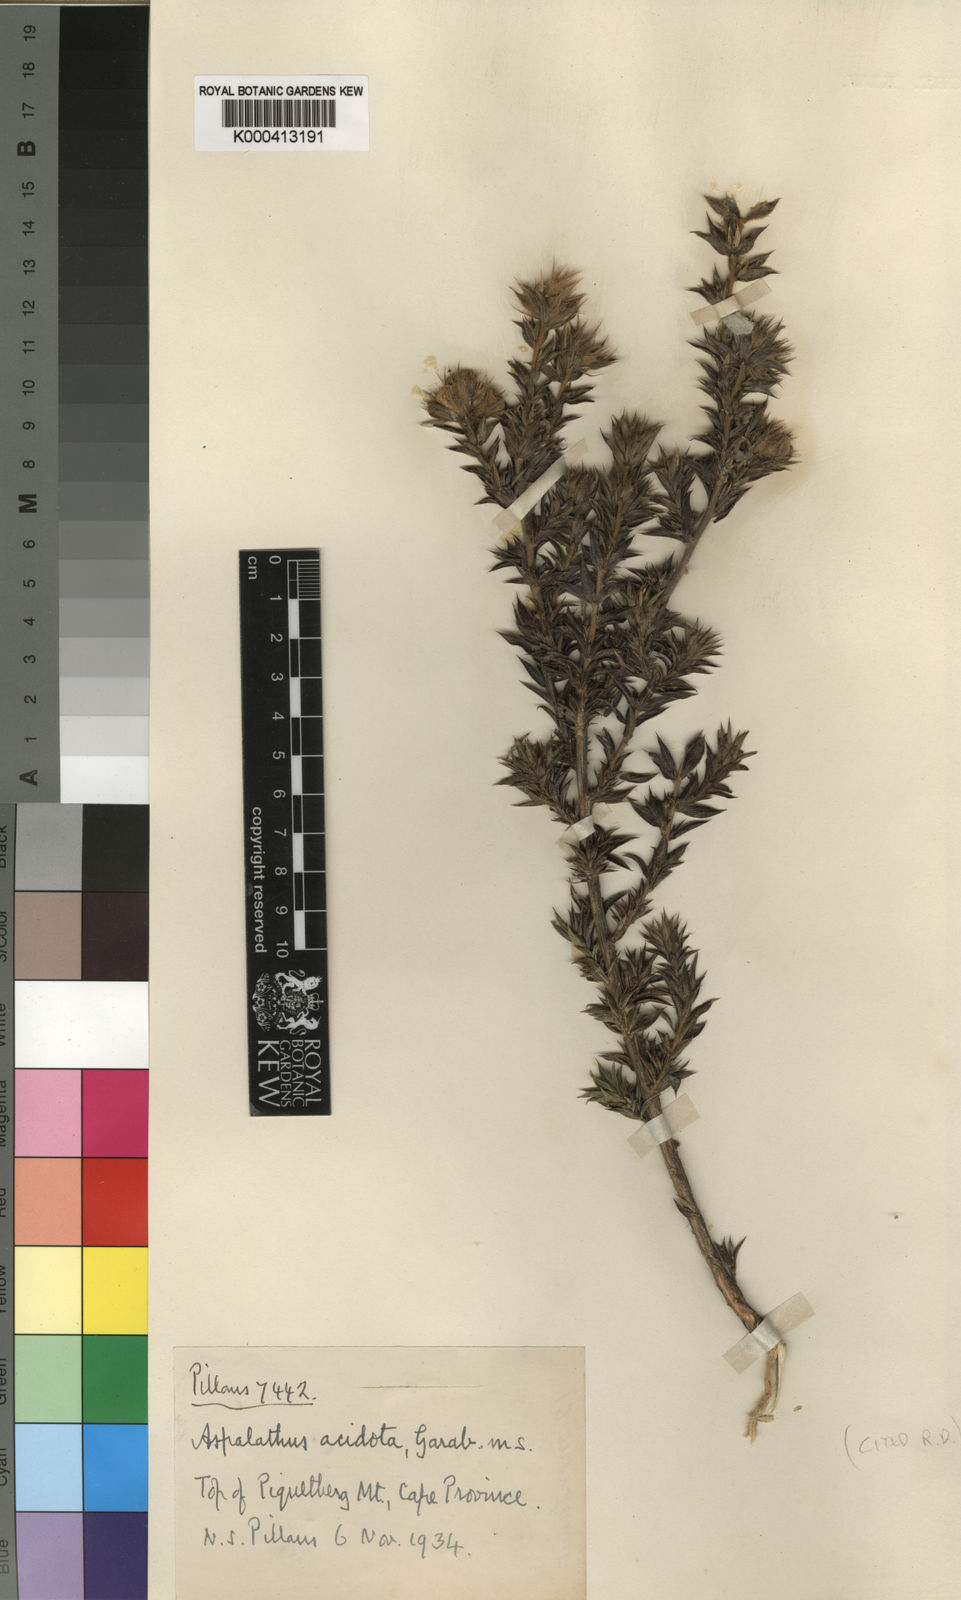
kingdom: Plantae
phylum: Tracheophyta
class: Magnoliopsida
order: Fabales
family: Fabaceae
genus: Aspalathus
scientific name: Aspalathus acidota
